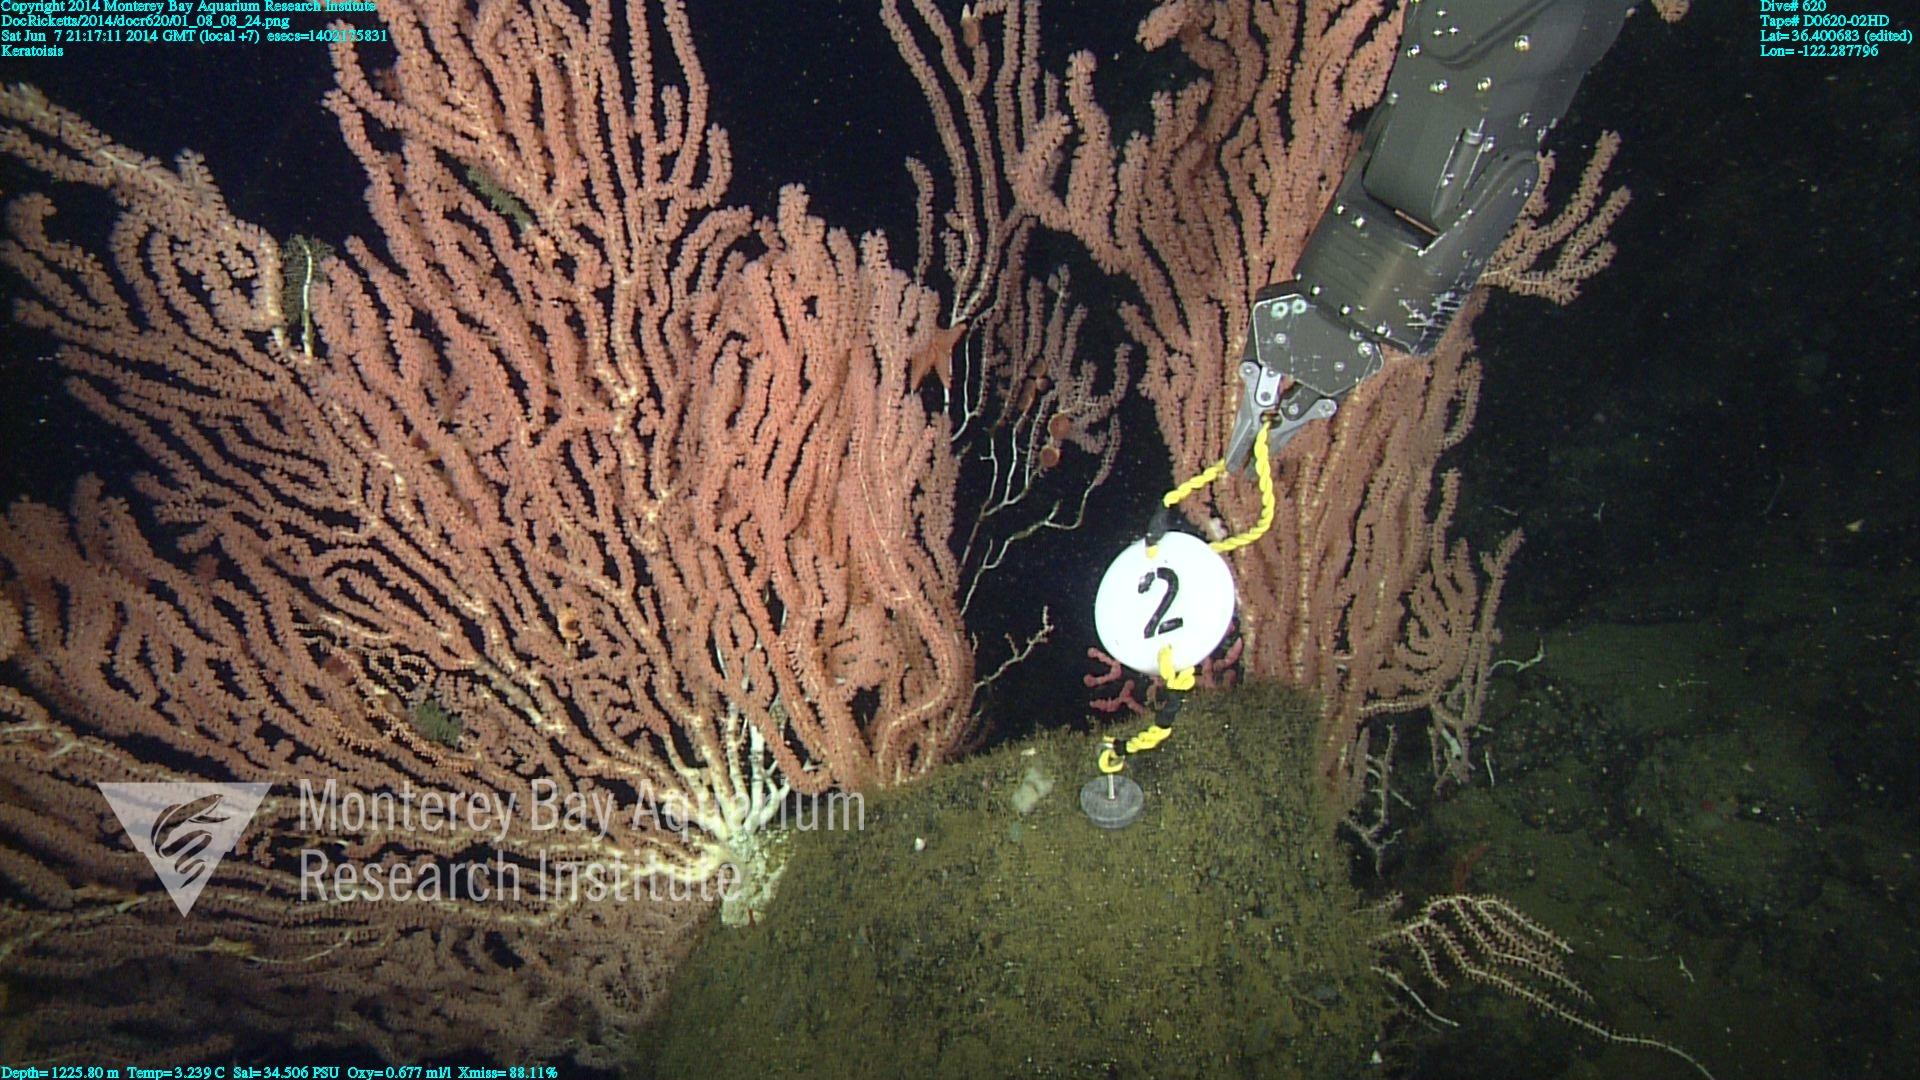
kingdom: Animalia
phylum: Cnidaria
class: Anthozoa
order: Scleralcyonacea
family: Keratoisididae
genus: Keratoisis
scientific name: Keratoisis
